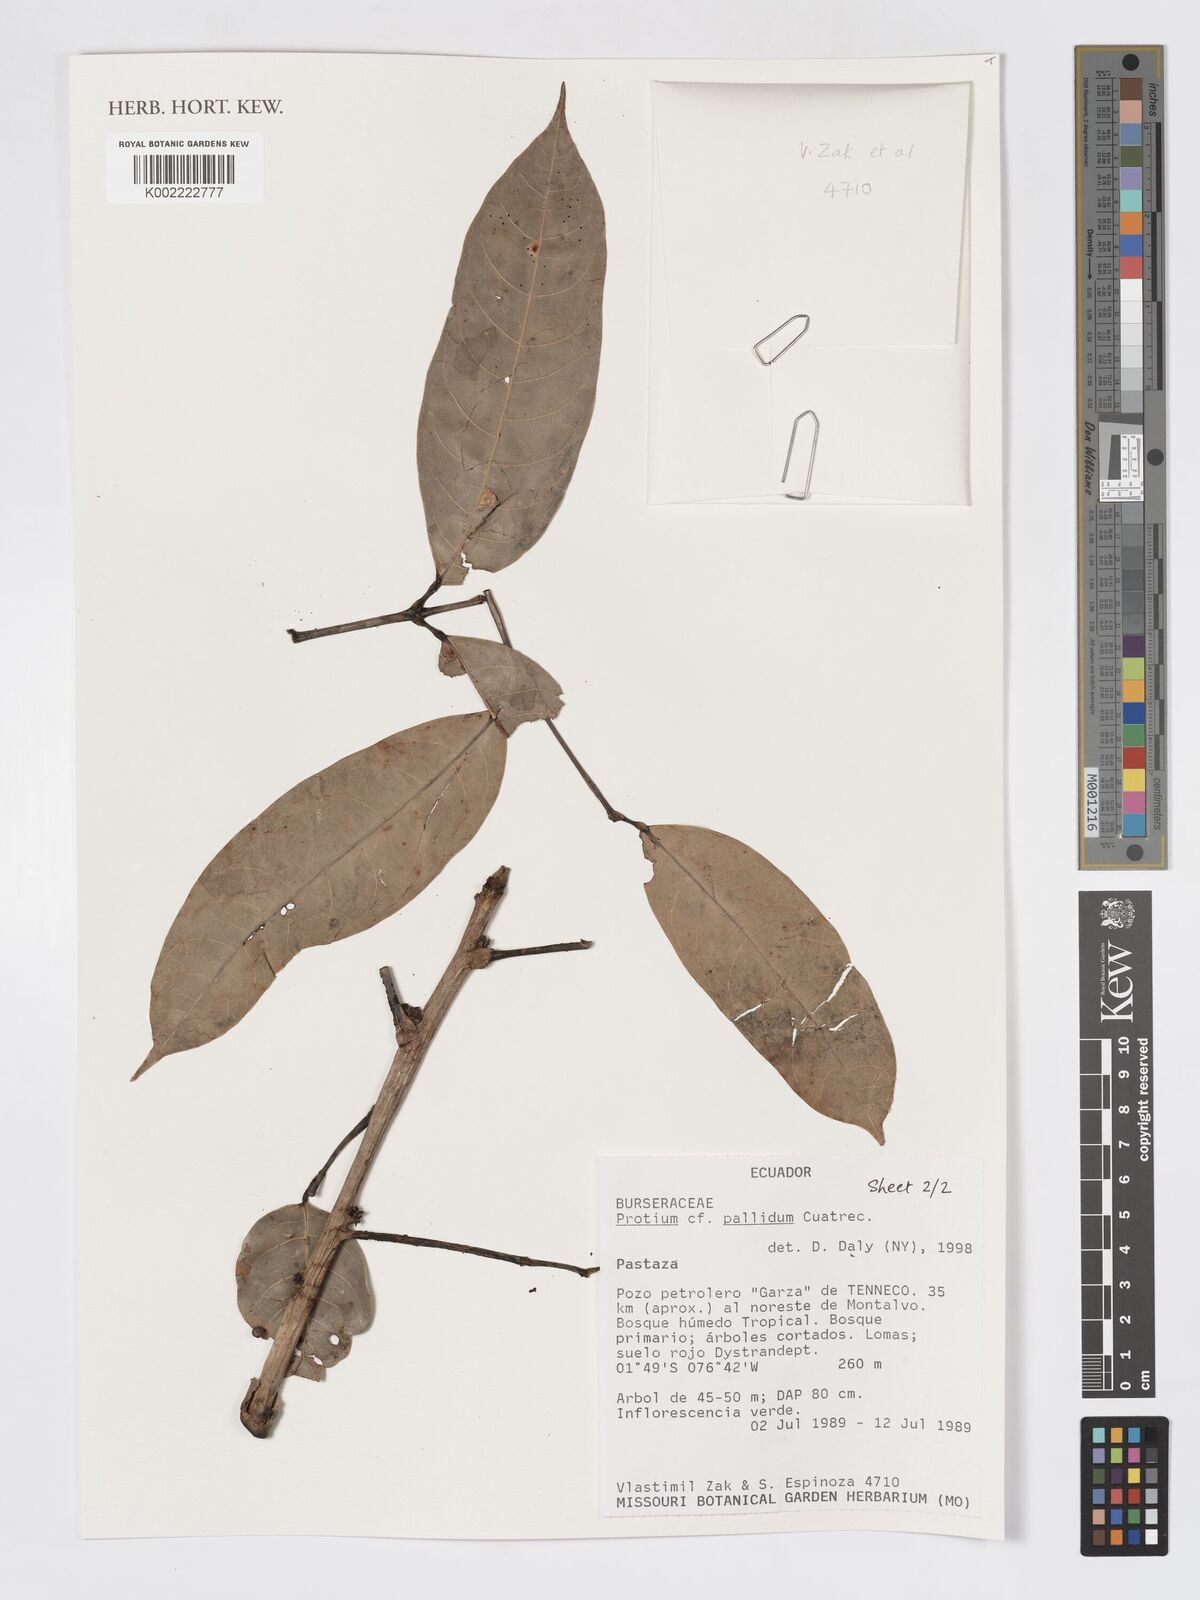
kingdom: Plantae
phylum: Tracheophyta
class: Magnoliopsida
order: Sapindales
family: Burseraceae
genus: Protium
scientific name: Protium pallidum
